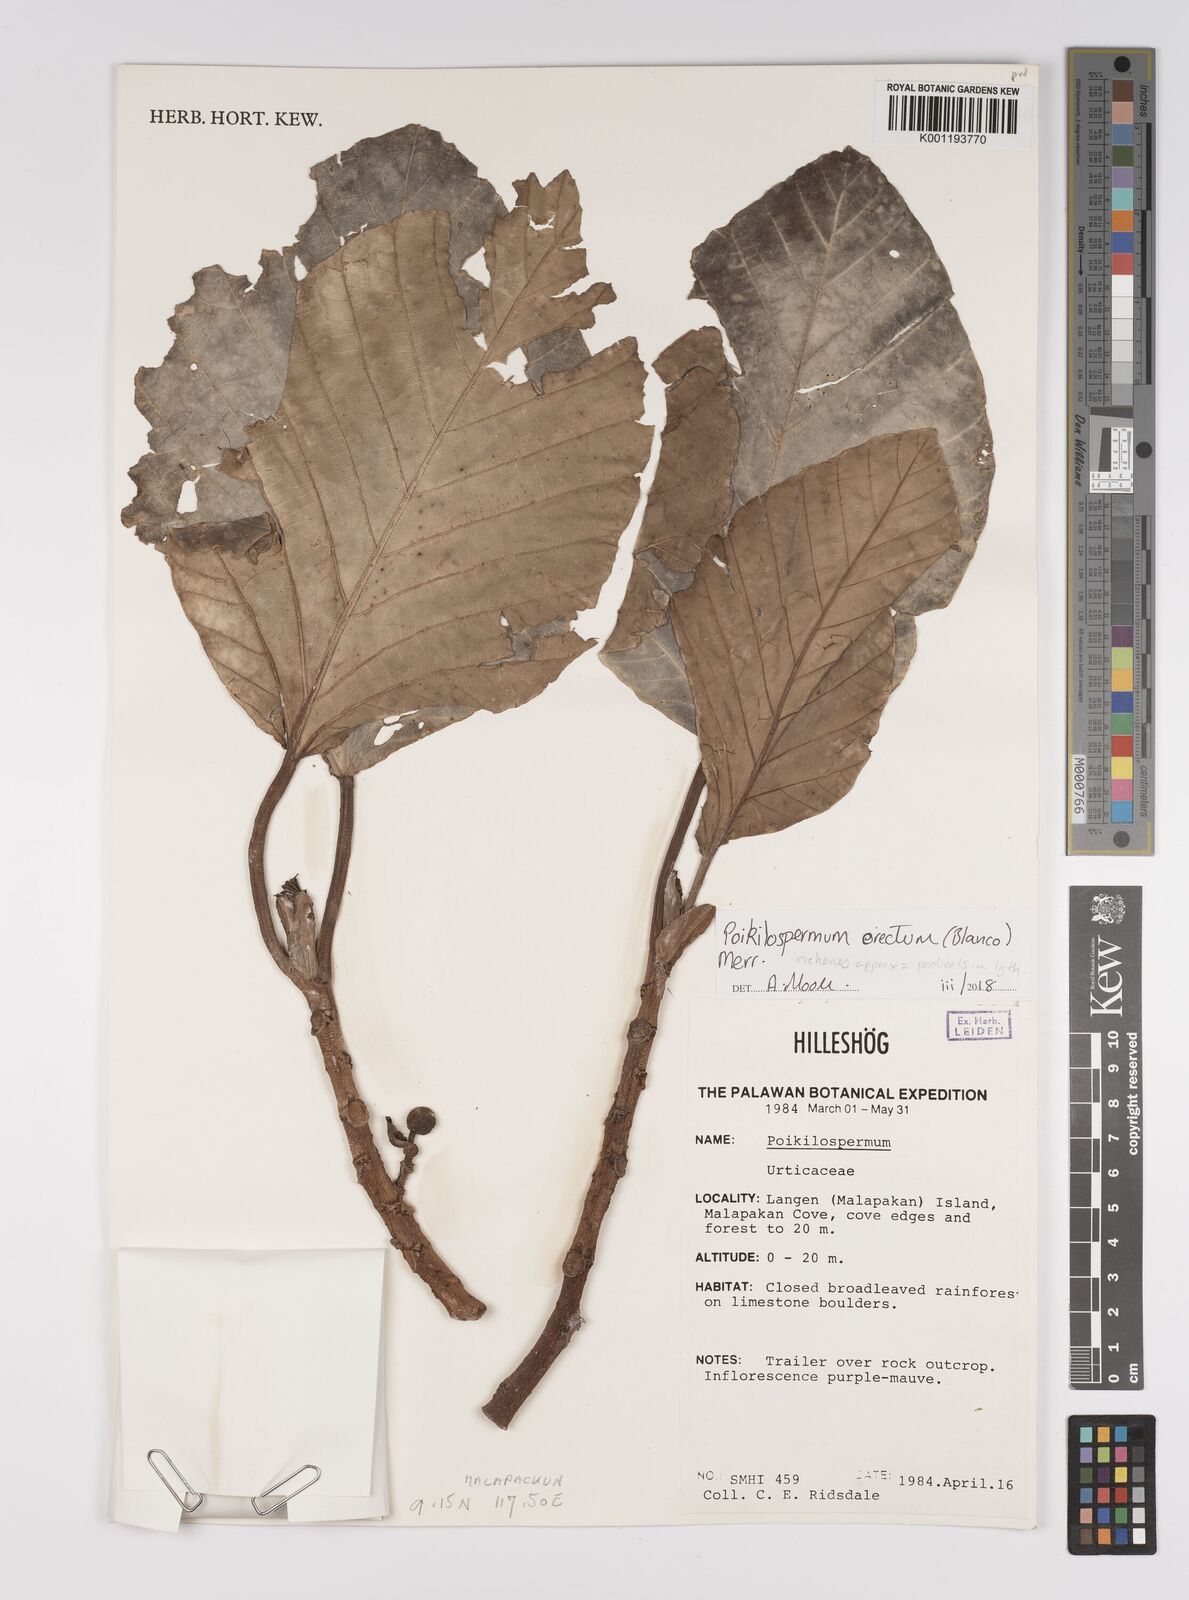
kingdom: Plantae
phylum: Tracheophyta
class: Magnoliopsida
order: Rosales
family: Urticaceae
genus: Poikilospermum
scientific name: Poikilospermum erectum
